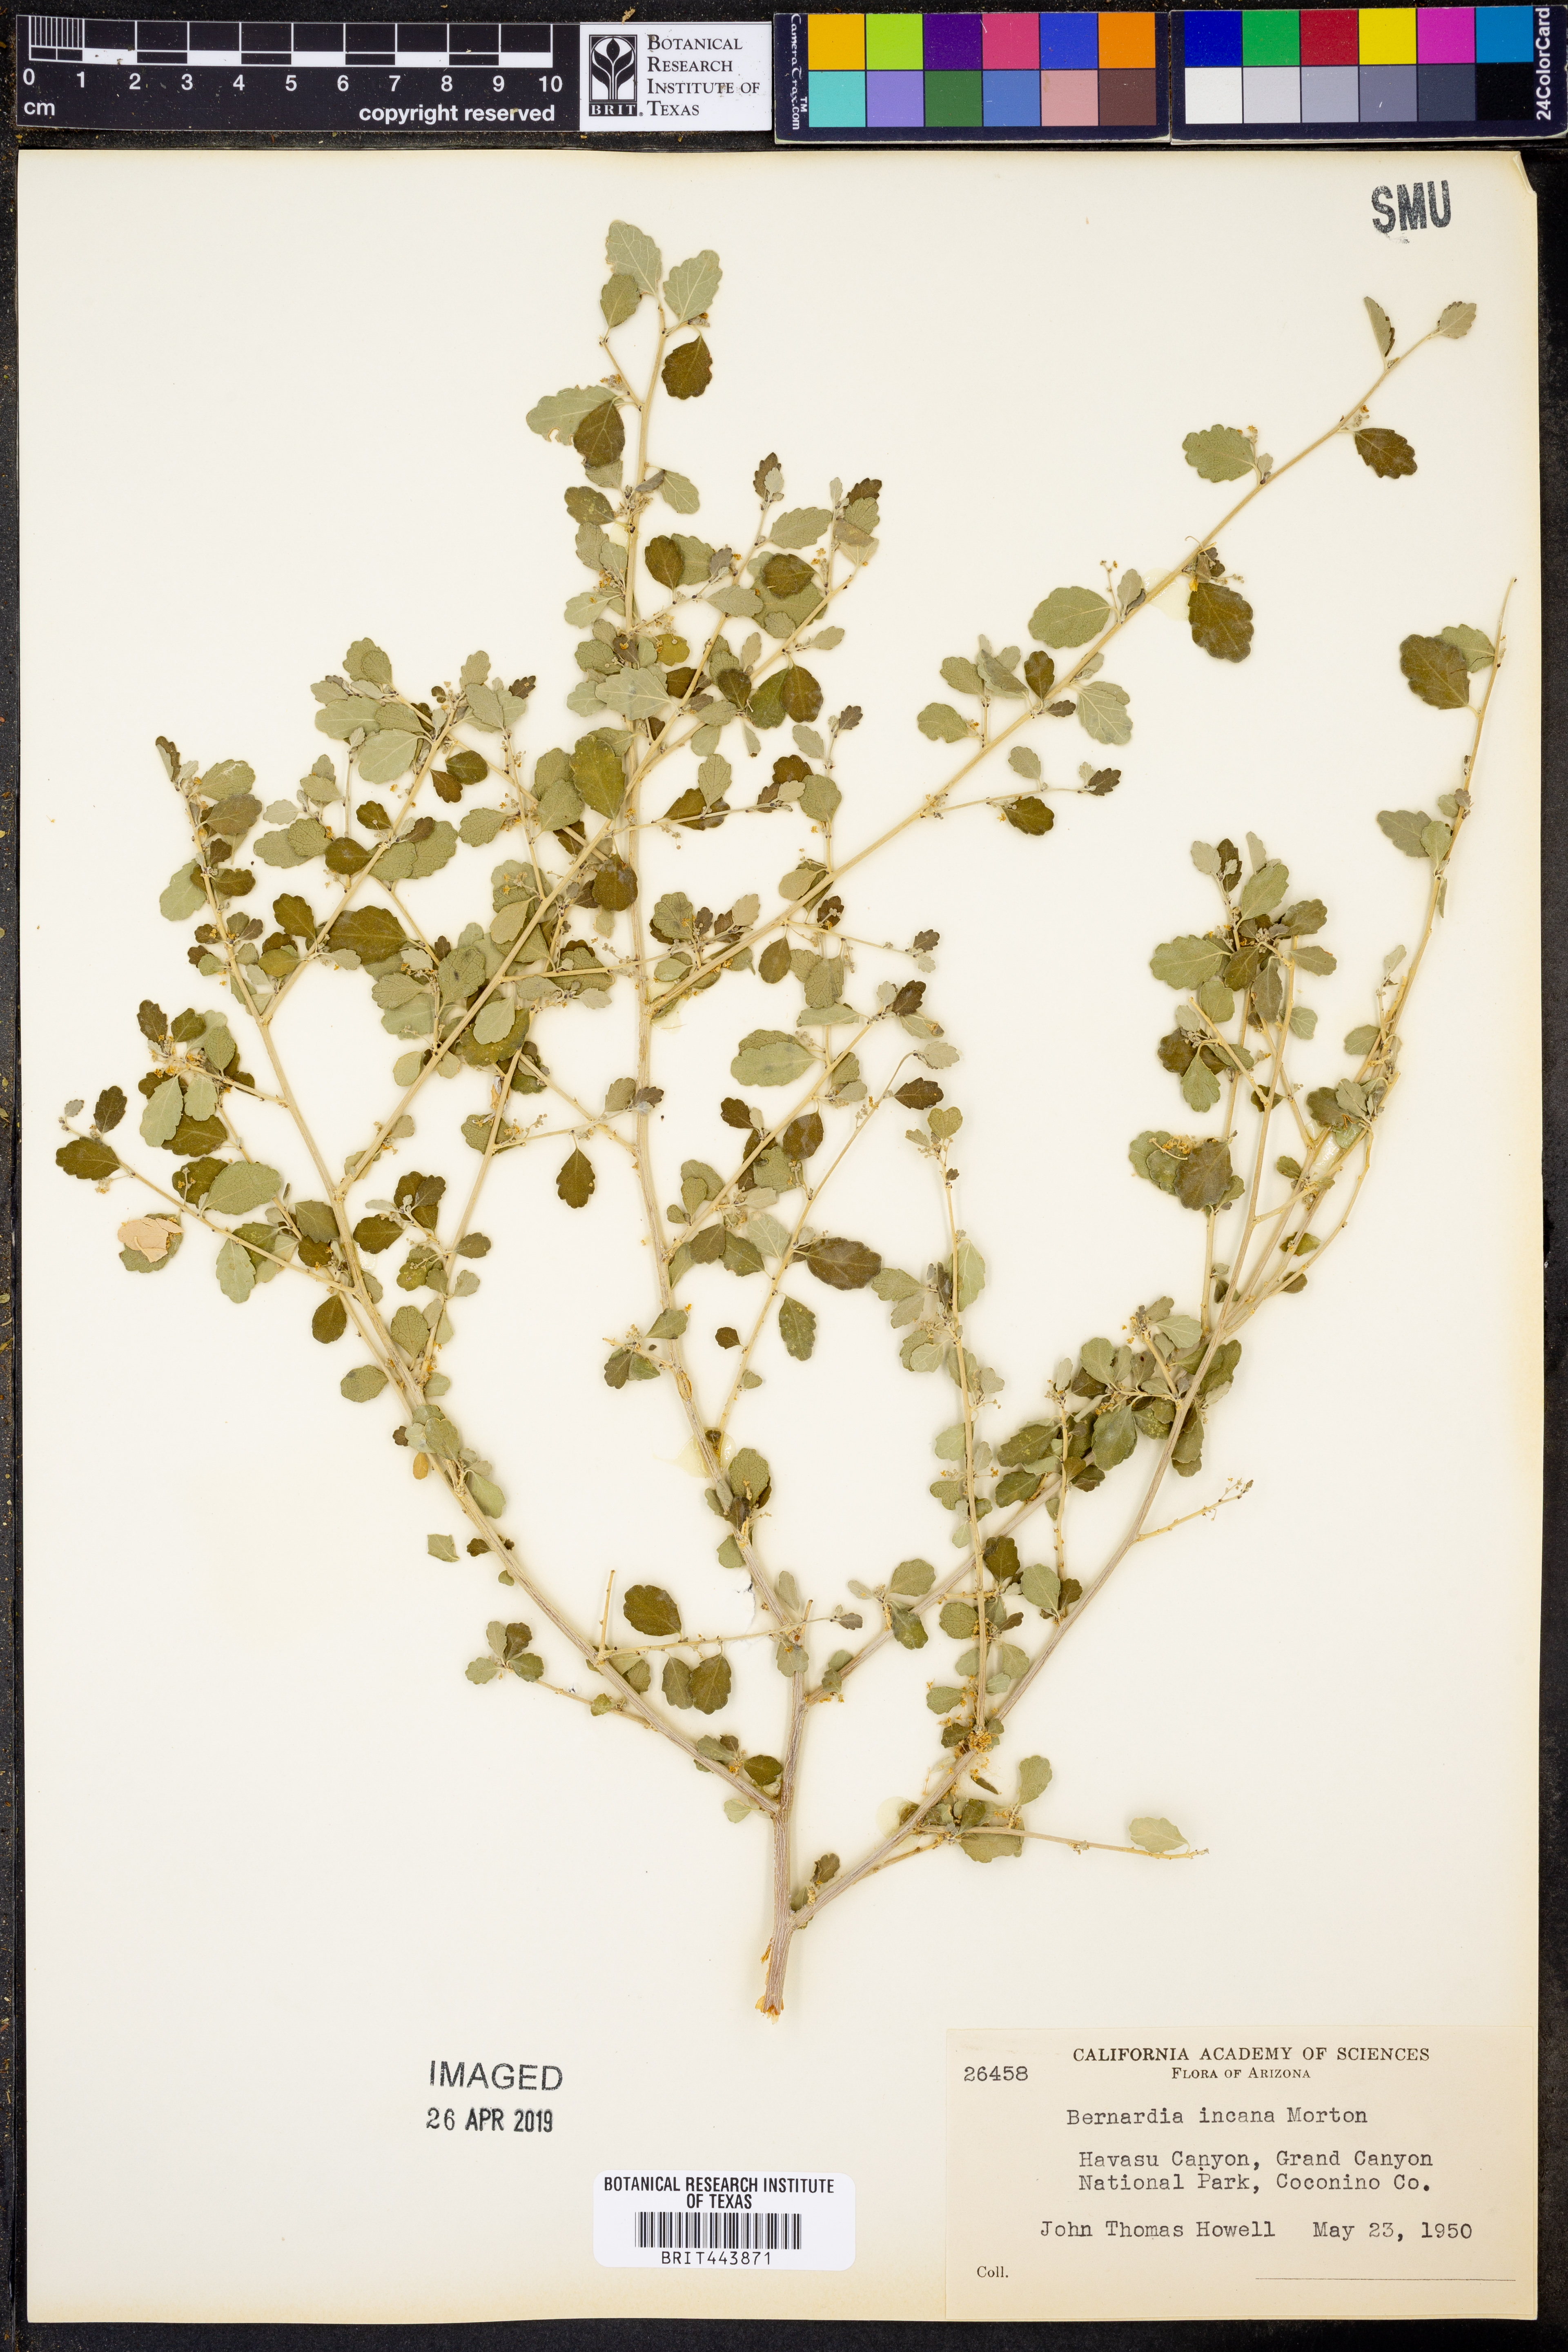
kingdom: Plantae
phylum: Tracheophyta
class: Magnoliopsida
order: Malpighiales
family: Euphorbiaceae
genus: Bernardia
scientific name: Bernardia incana
